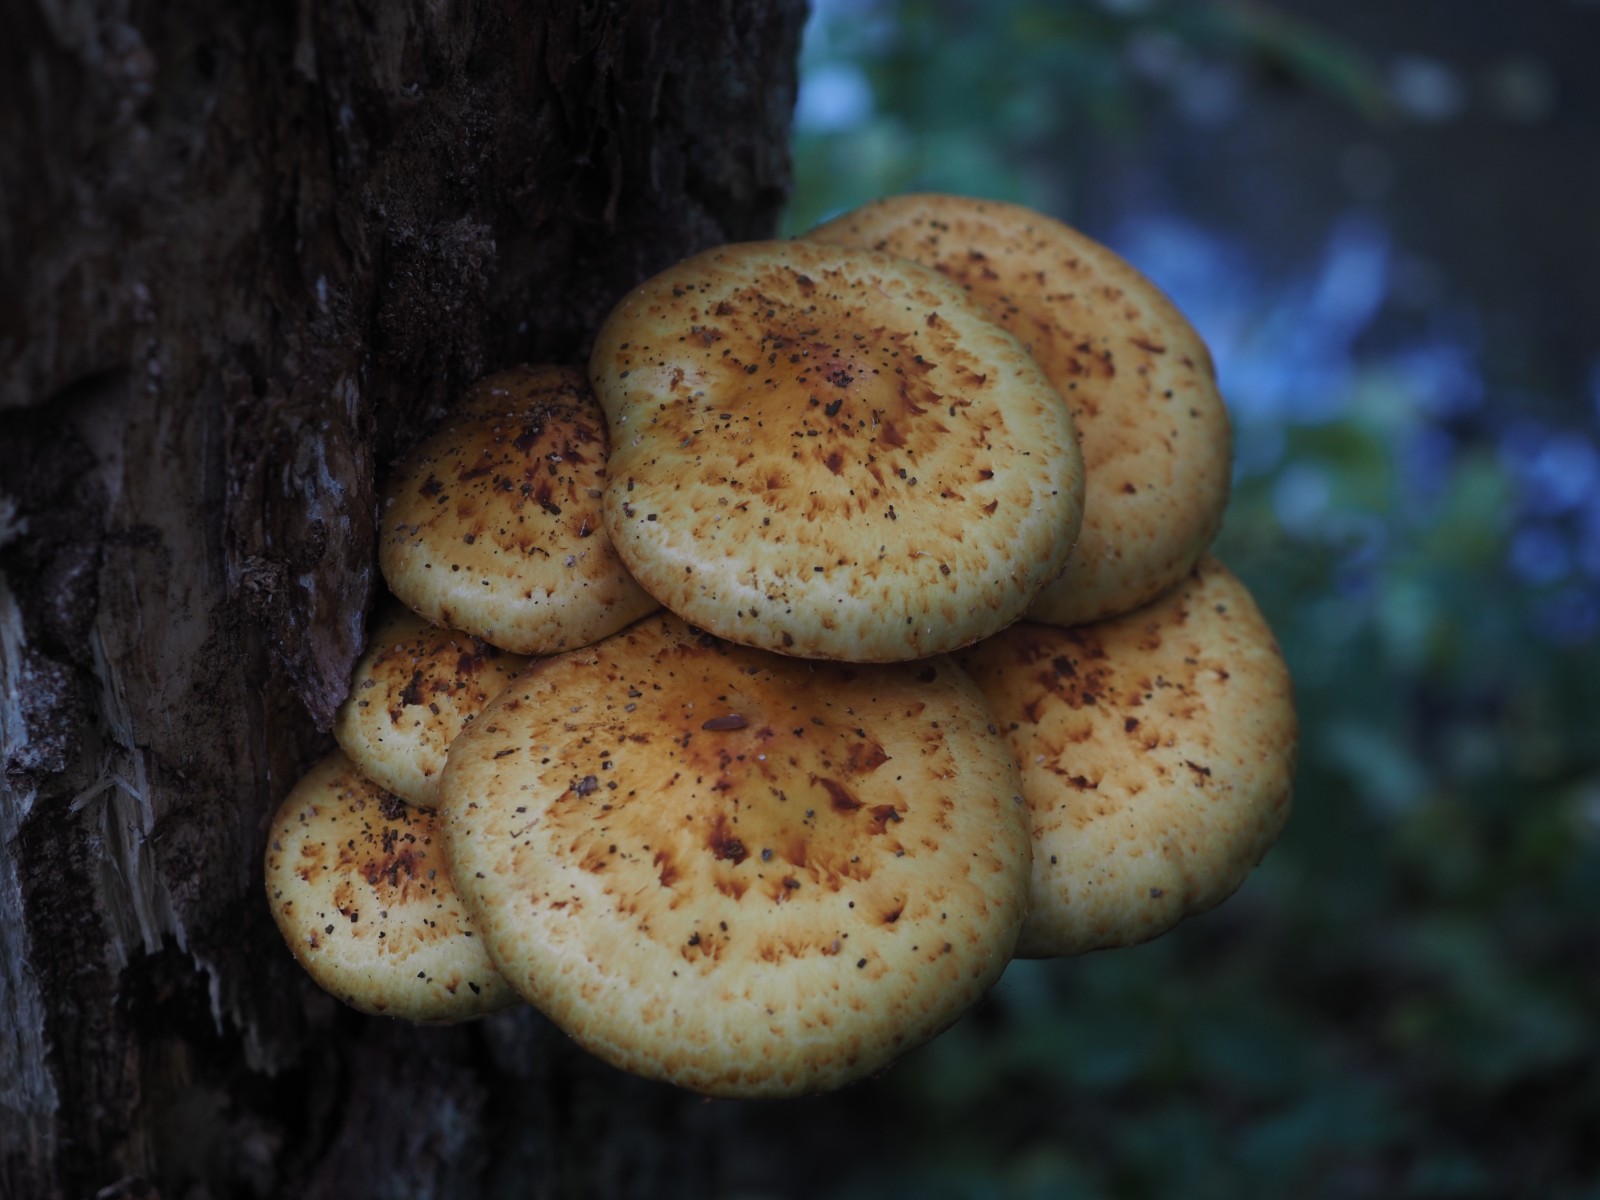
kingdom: Fungi
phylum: Basidiomycota
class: Agaricomycetes
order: Agaricales
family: Strophariaceae
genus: Pholiota
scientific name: Pholiota adiposa
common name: højtsiddende skælhat
